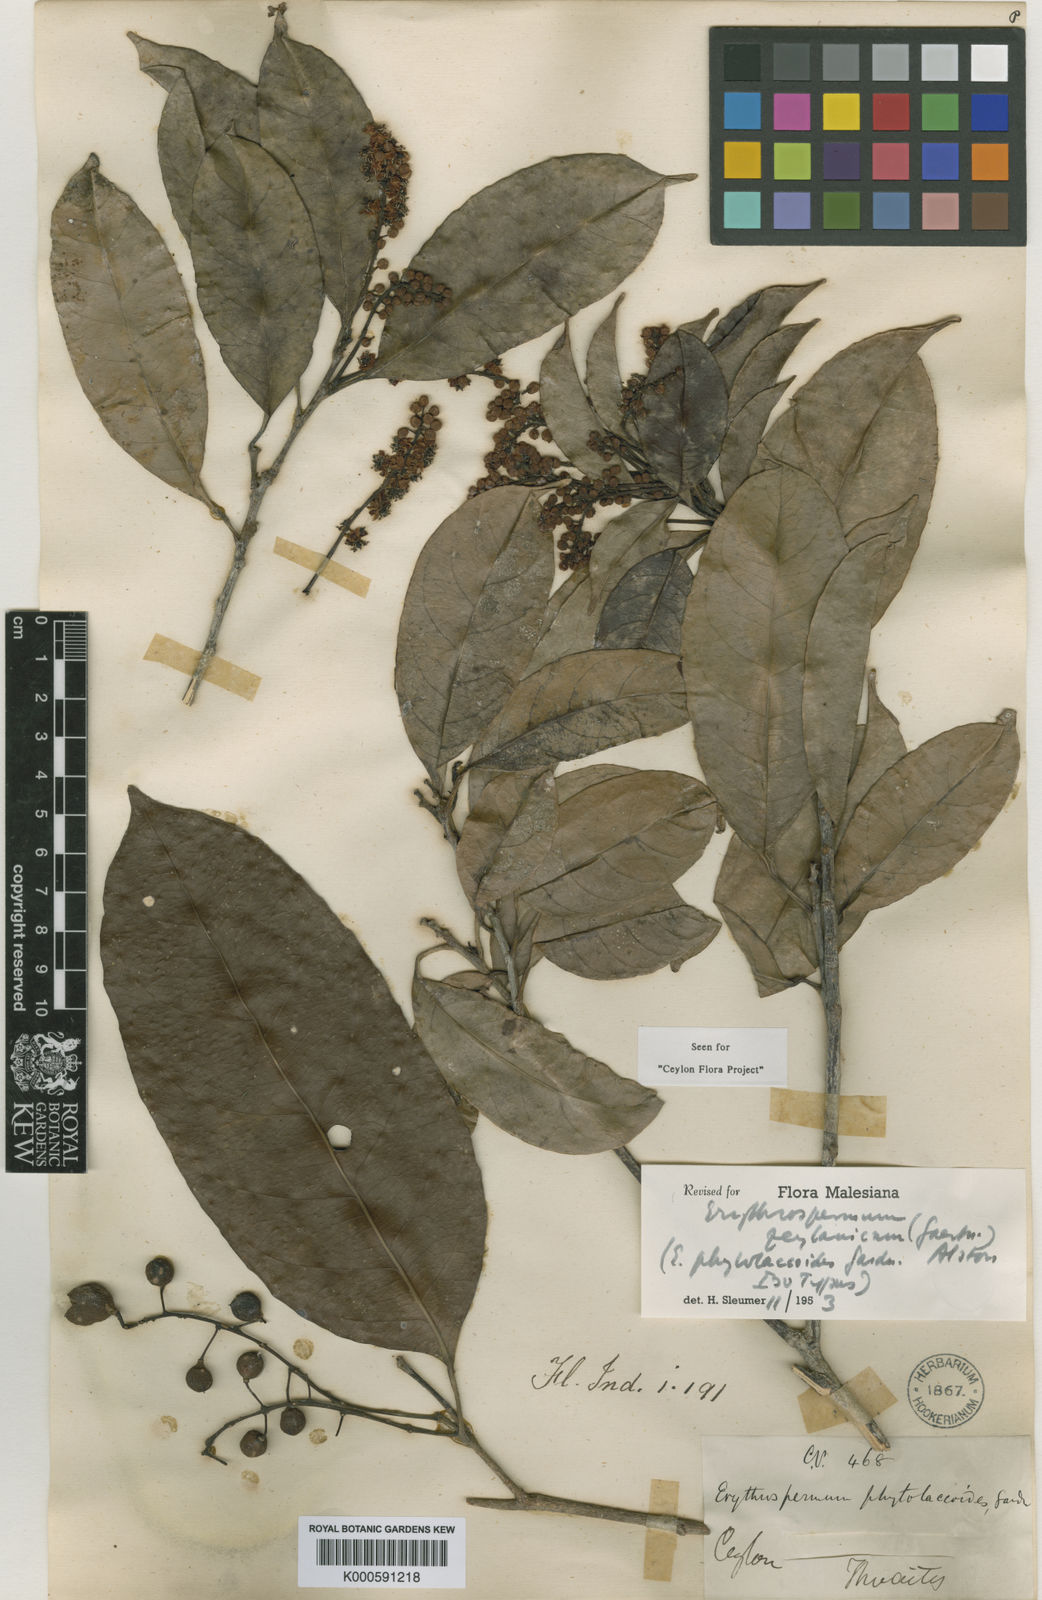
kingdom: Plantae
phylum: Tracheophyta
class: Magnoliopsida
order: Malpighiales
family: Achariaceae
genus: Erythrospermum
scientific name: Erythrospermum zeylanicum
